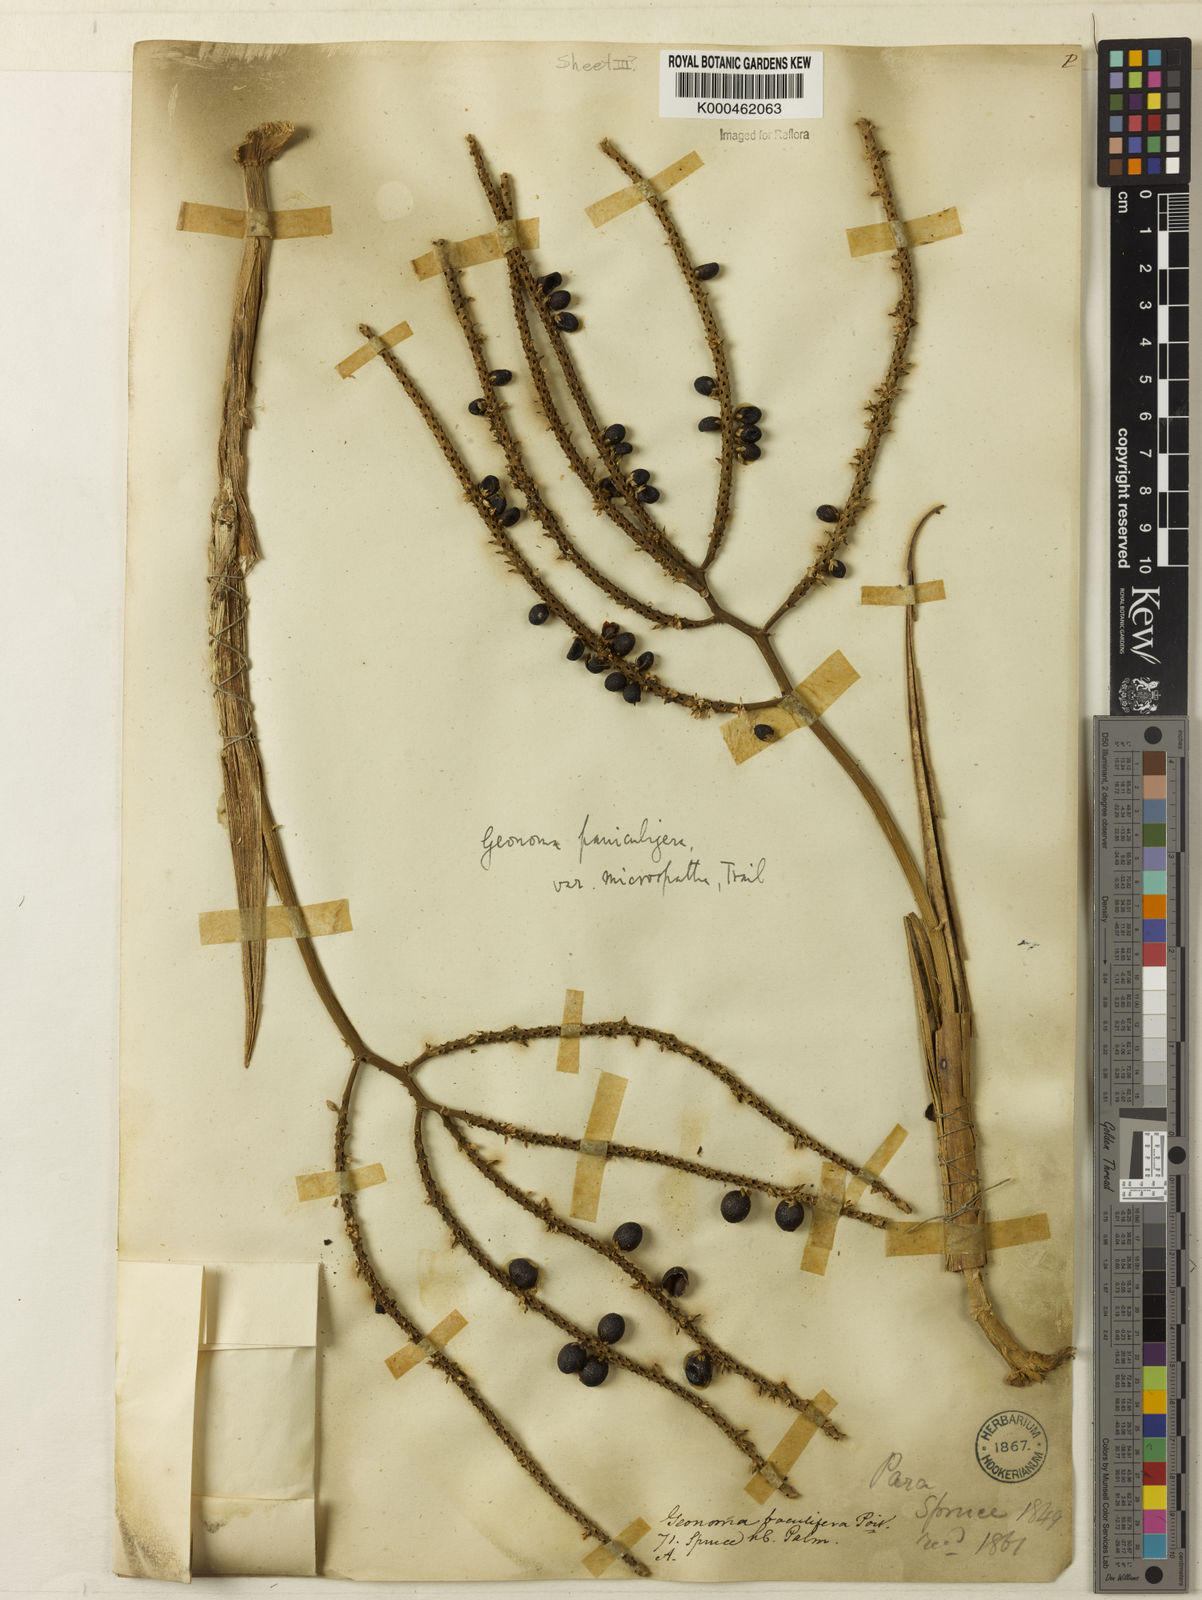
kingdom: Plantae
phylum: Tracheophyta
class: Liliopsida
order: Arecales
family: Arecaceae
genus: Geonoma
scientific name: Geonoma baculifera
